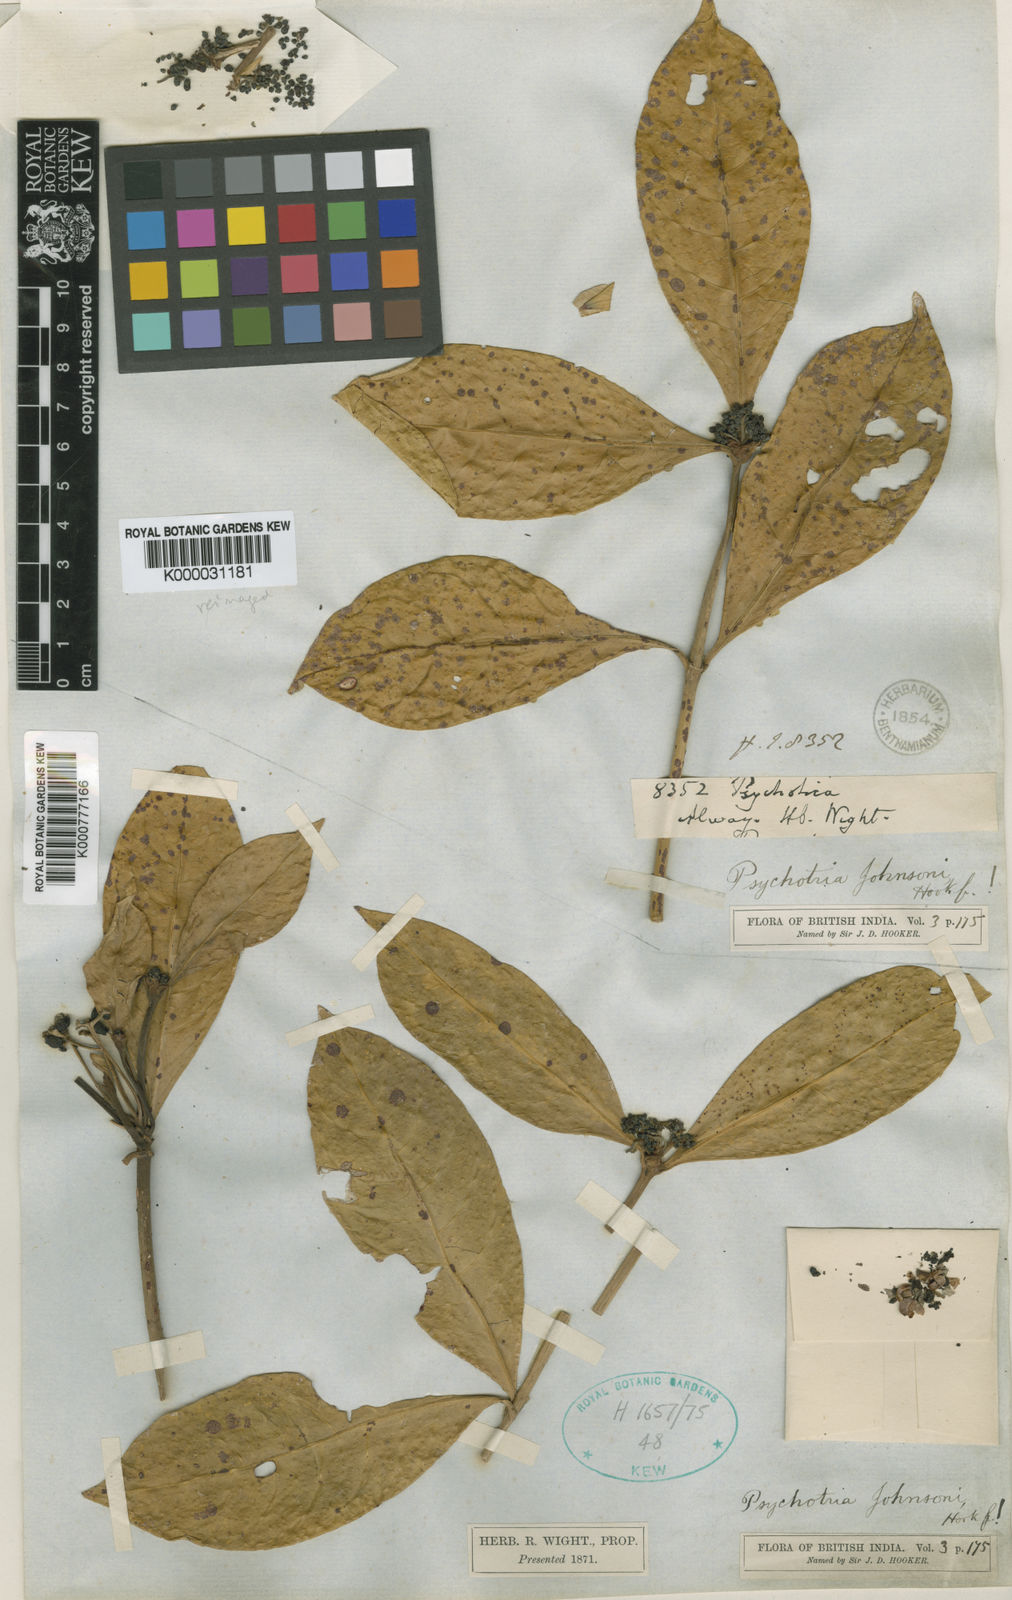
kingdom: Plantae
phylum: Tracheophyta
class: Magnoliopsida
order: Gentianales
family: Rubiaceae
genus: Psychotria
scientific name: Psychotria
